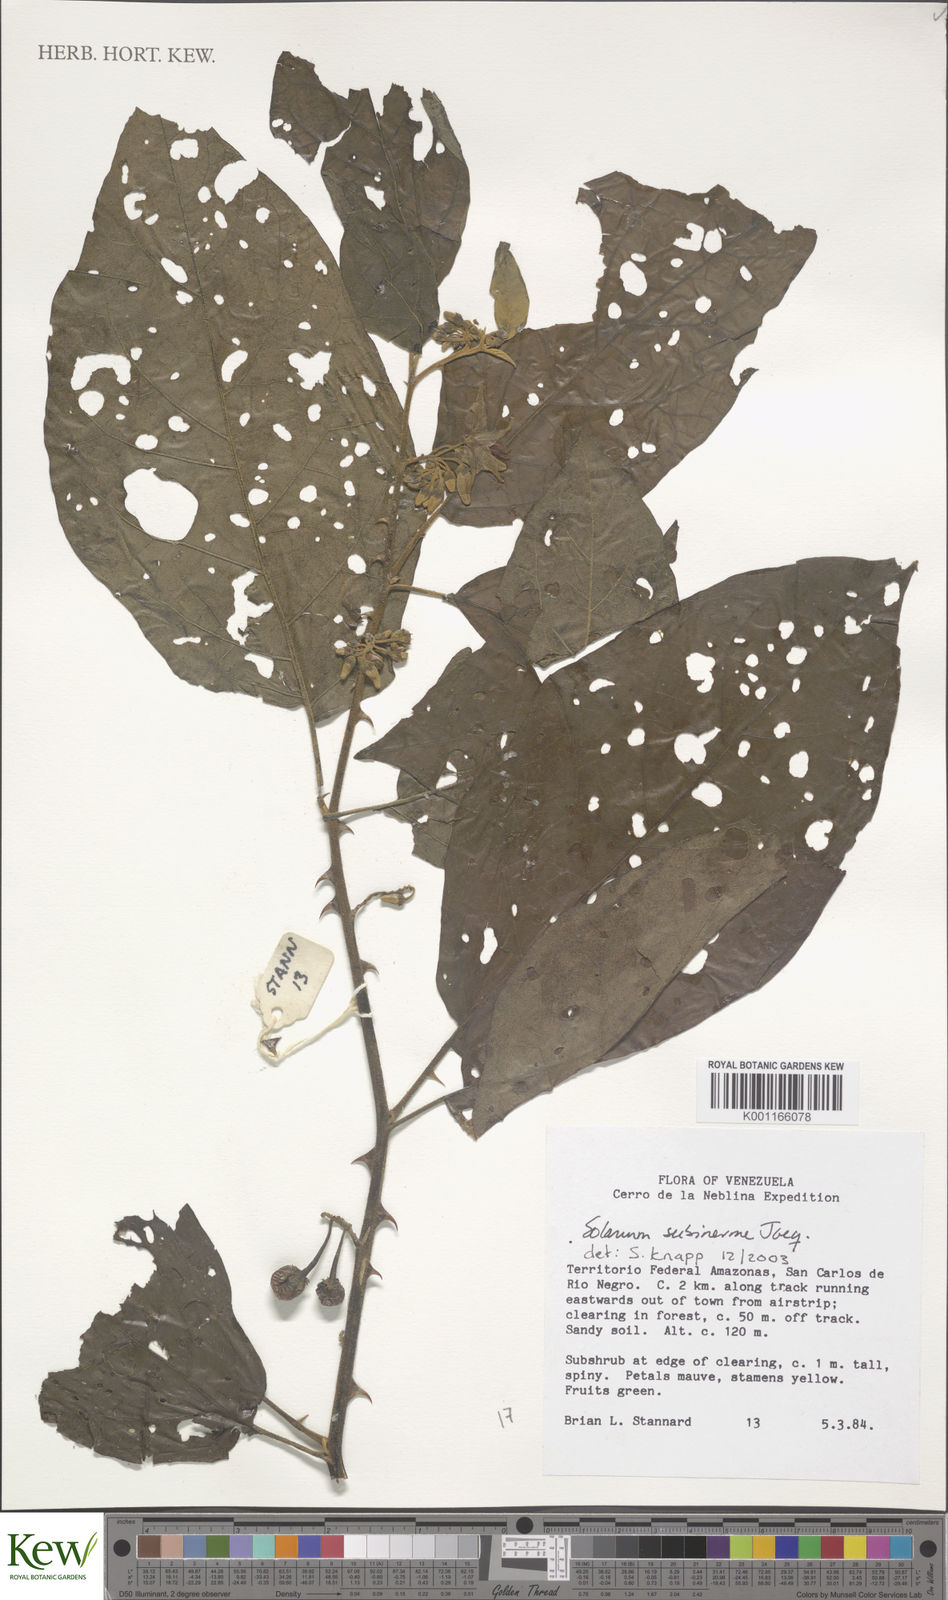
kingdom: Plantae
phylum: Tracheophyta
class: Magnoliopsida
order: Solanales
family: Solanaceae
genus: Solanum
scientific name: Solanum subinerme
